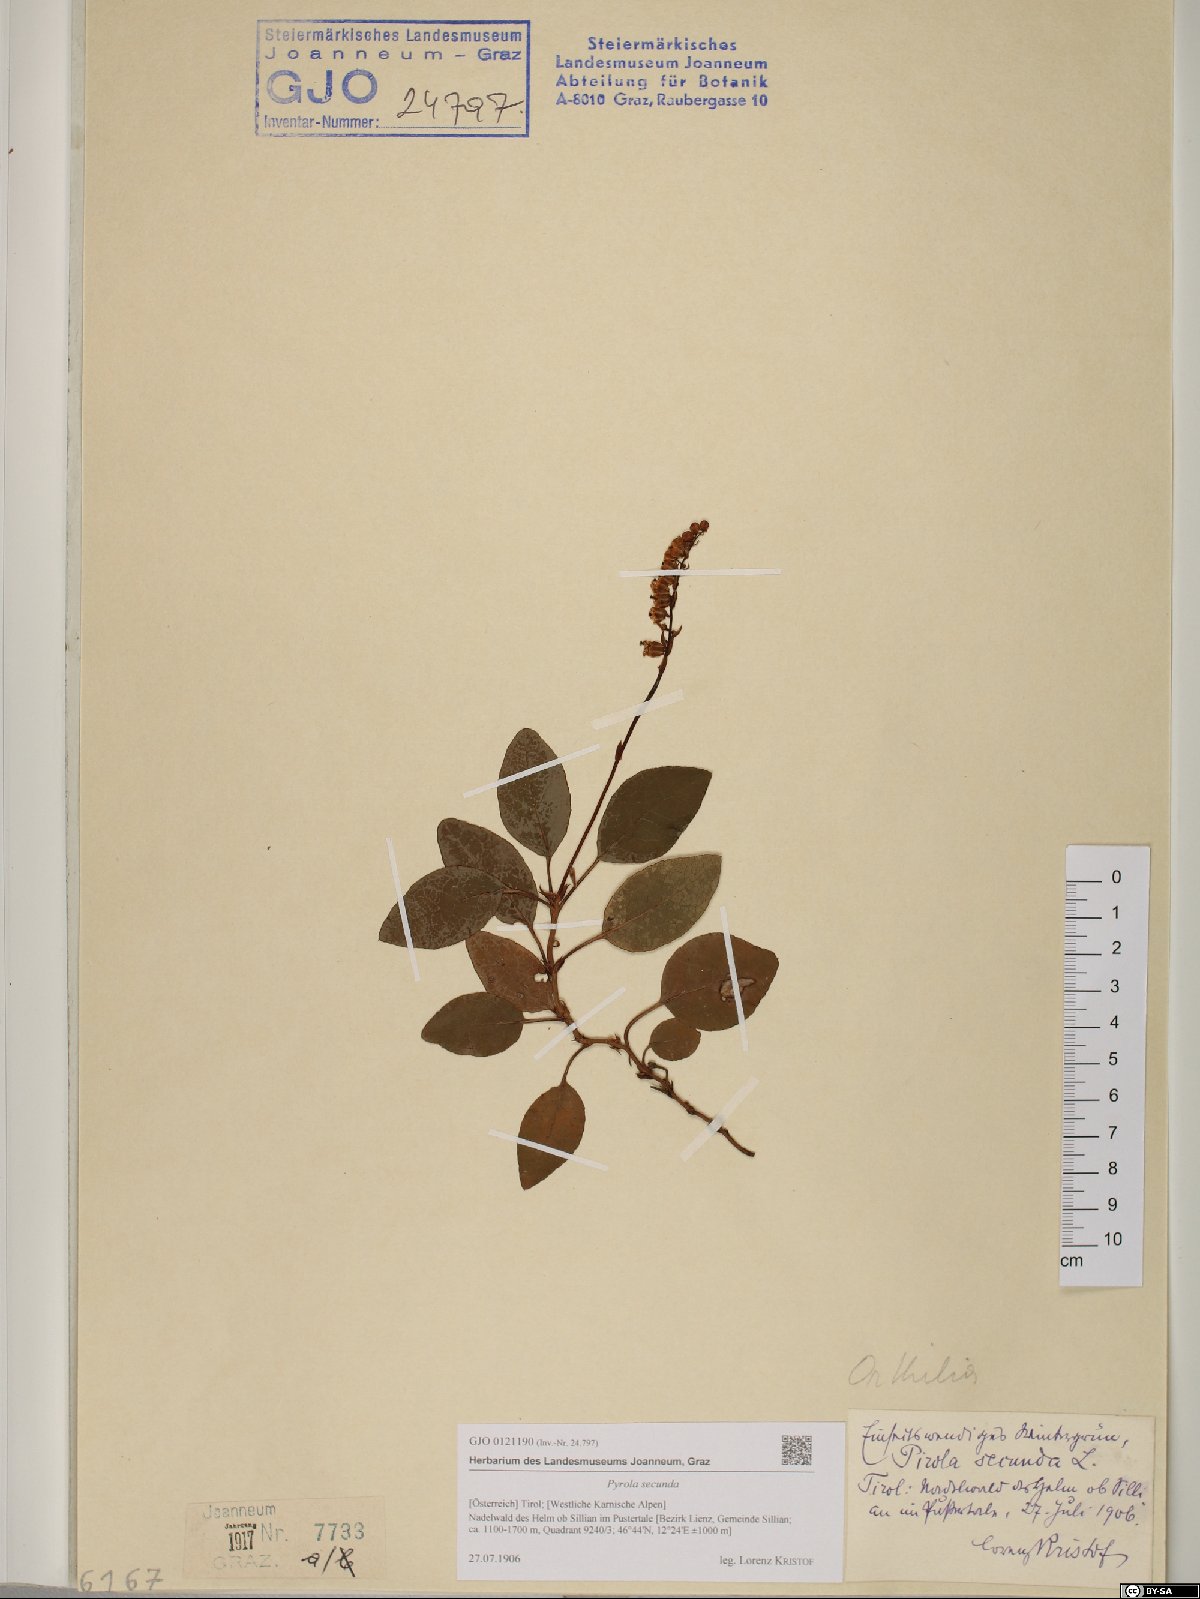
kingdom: Plantae
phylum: Tracheophyta
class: Magnoliopsida
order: Ericales
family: Ericaceae
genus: Orthilia
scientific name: Orthilia secunda
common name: One-sided orthilia
